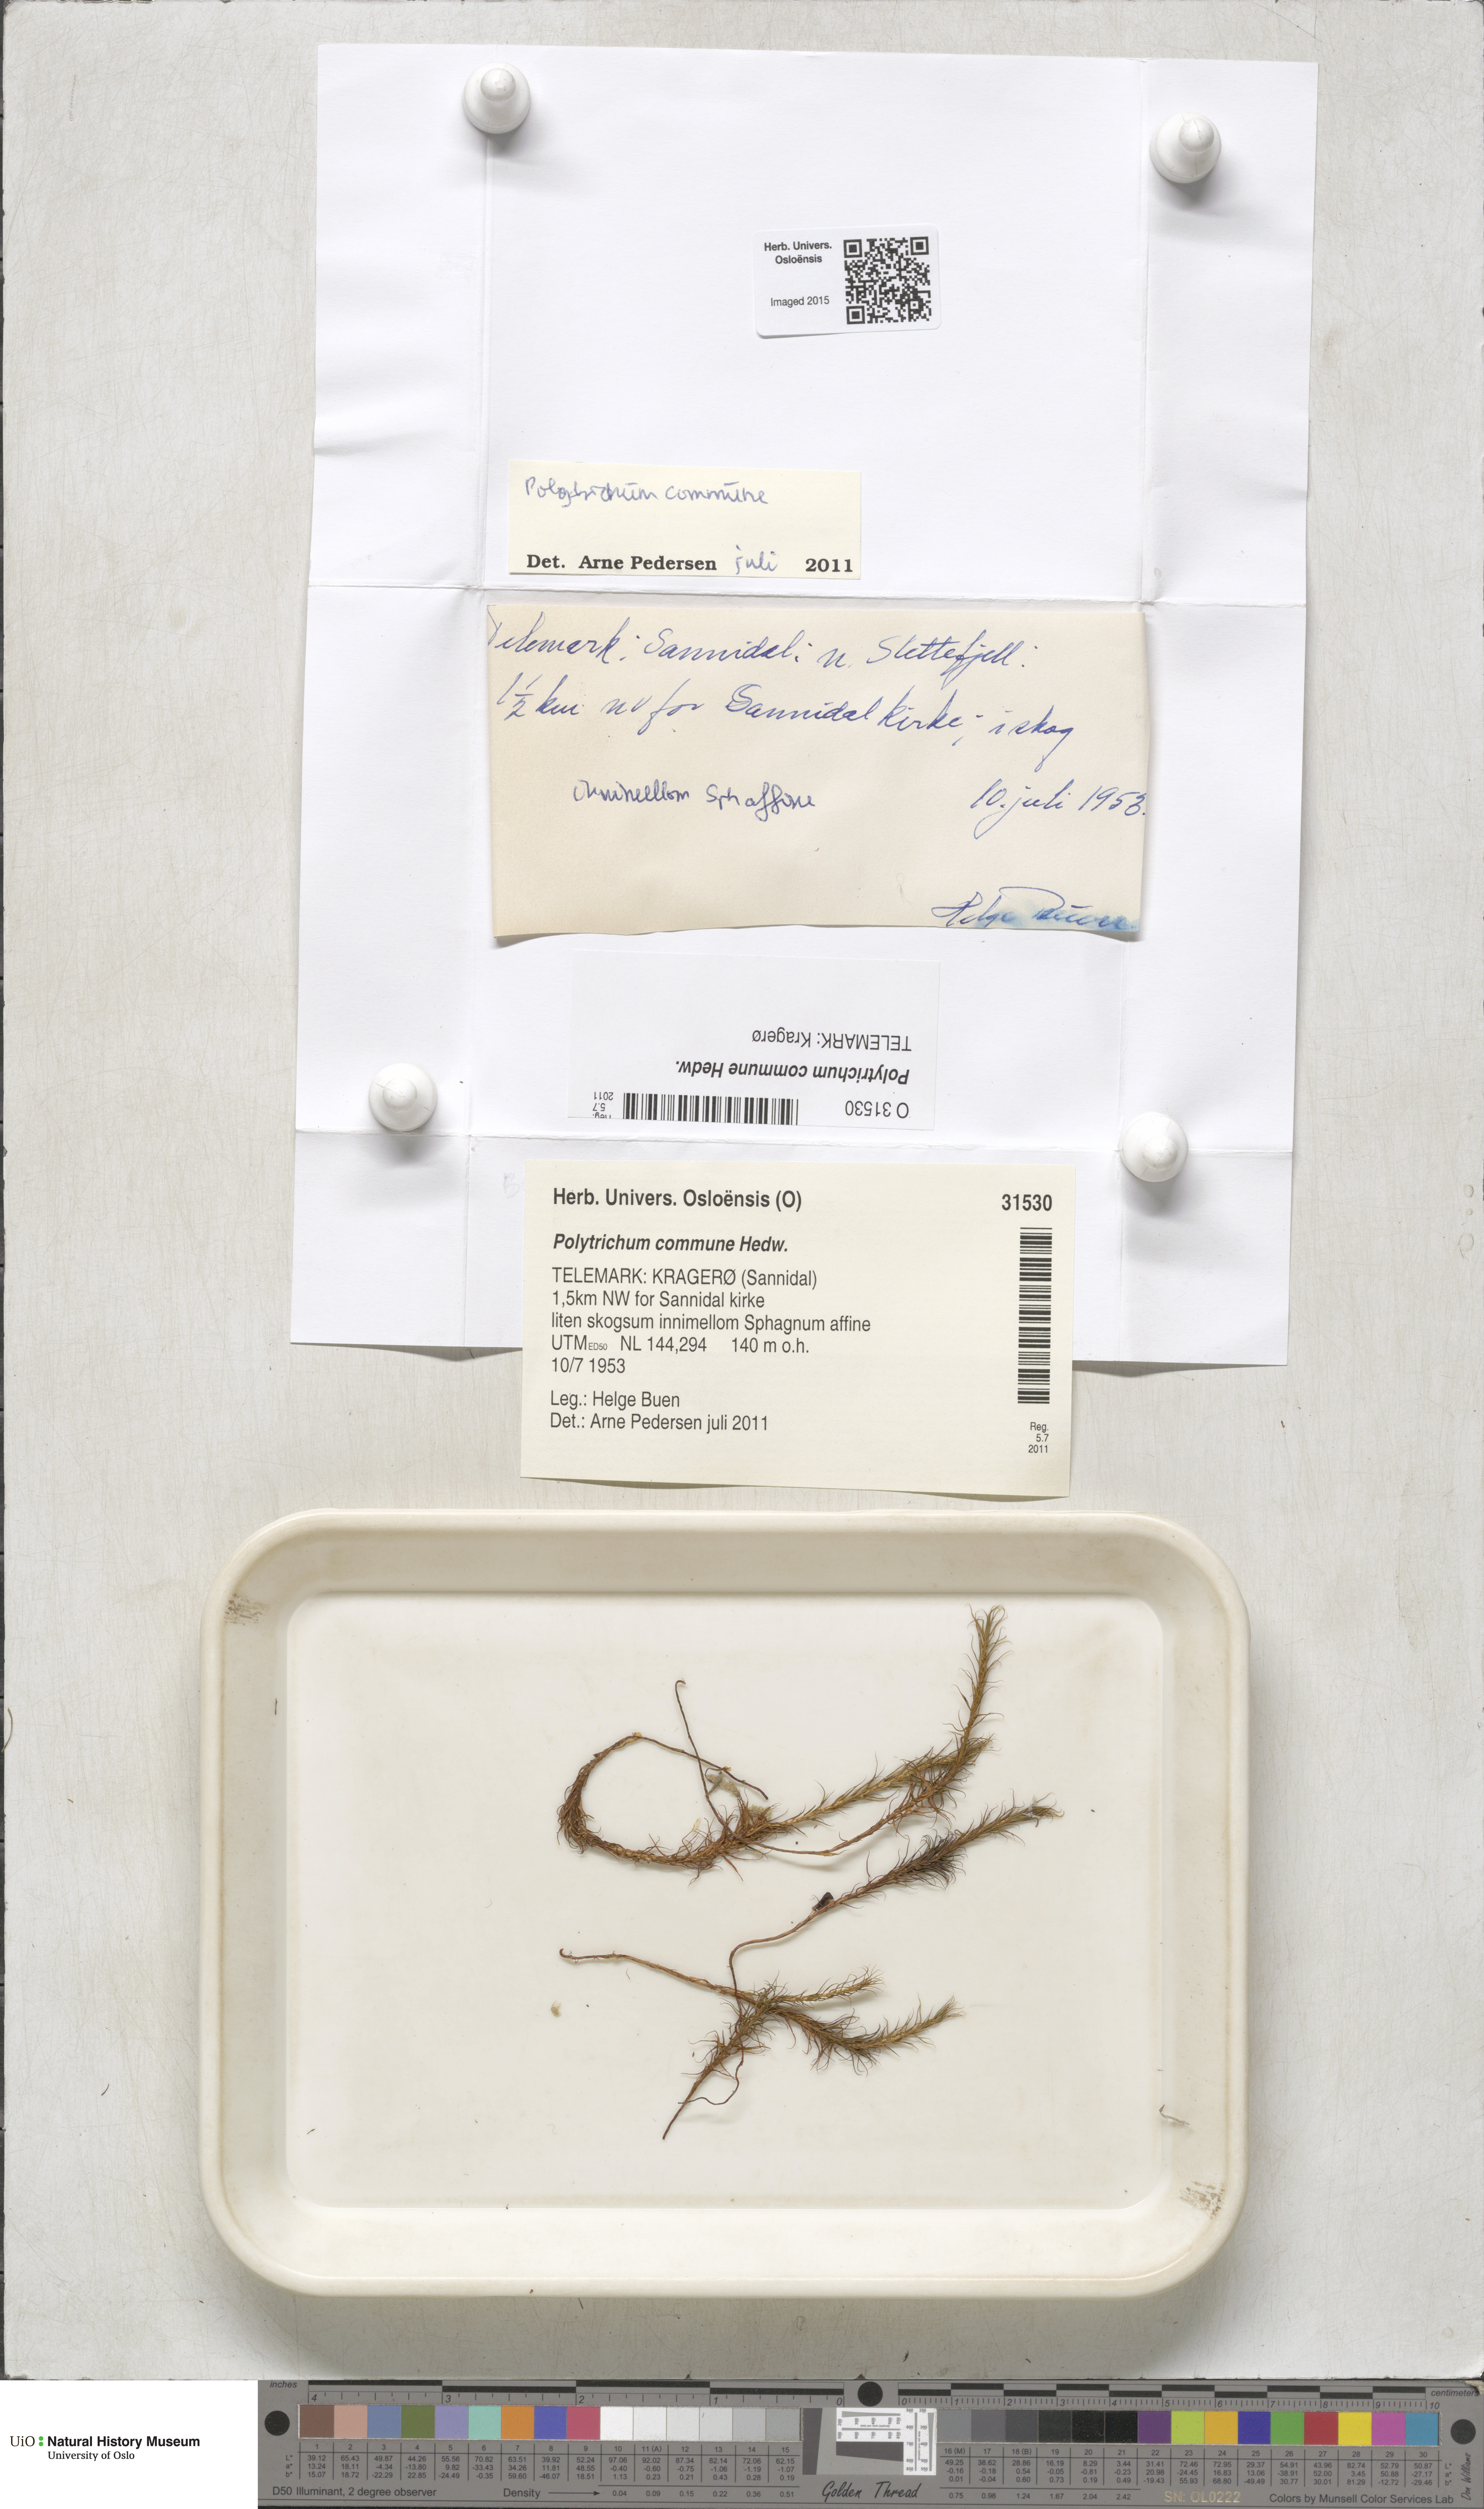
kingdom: Plantae
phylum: Bryophyta
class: Polytrichopsida
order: Polytrichales
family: Polytrichaceae
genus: Polytrichum
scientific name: Polytrichum commune
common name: Common haircap
